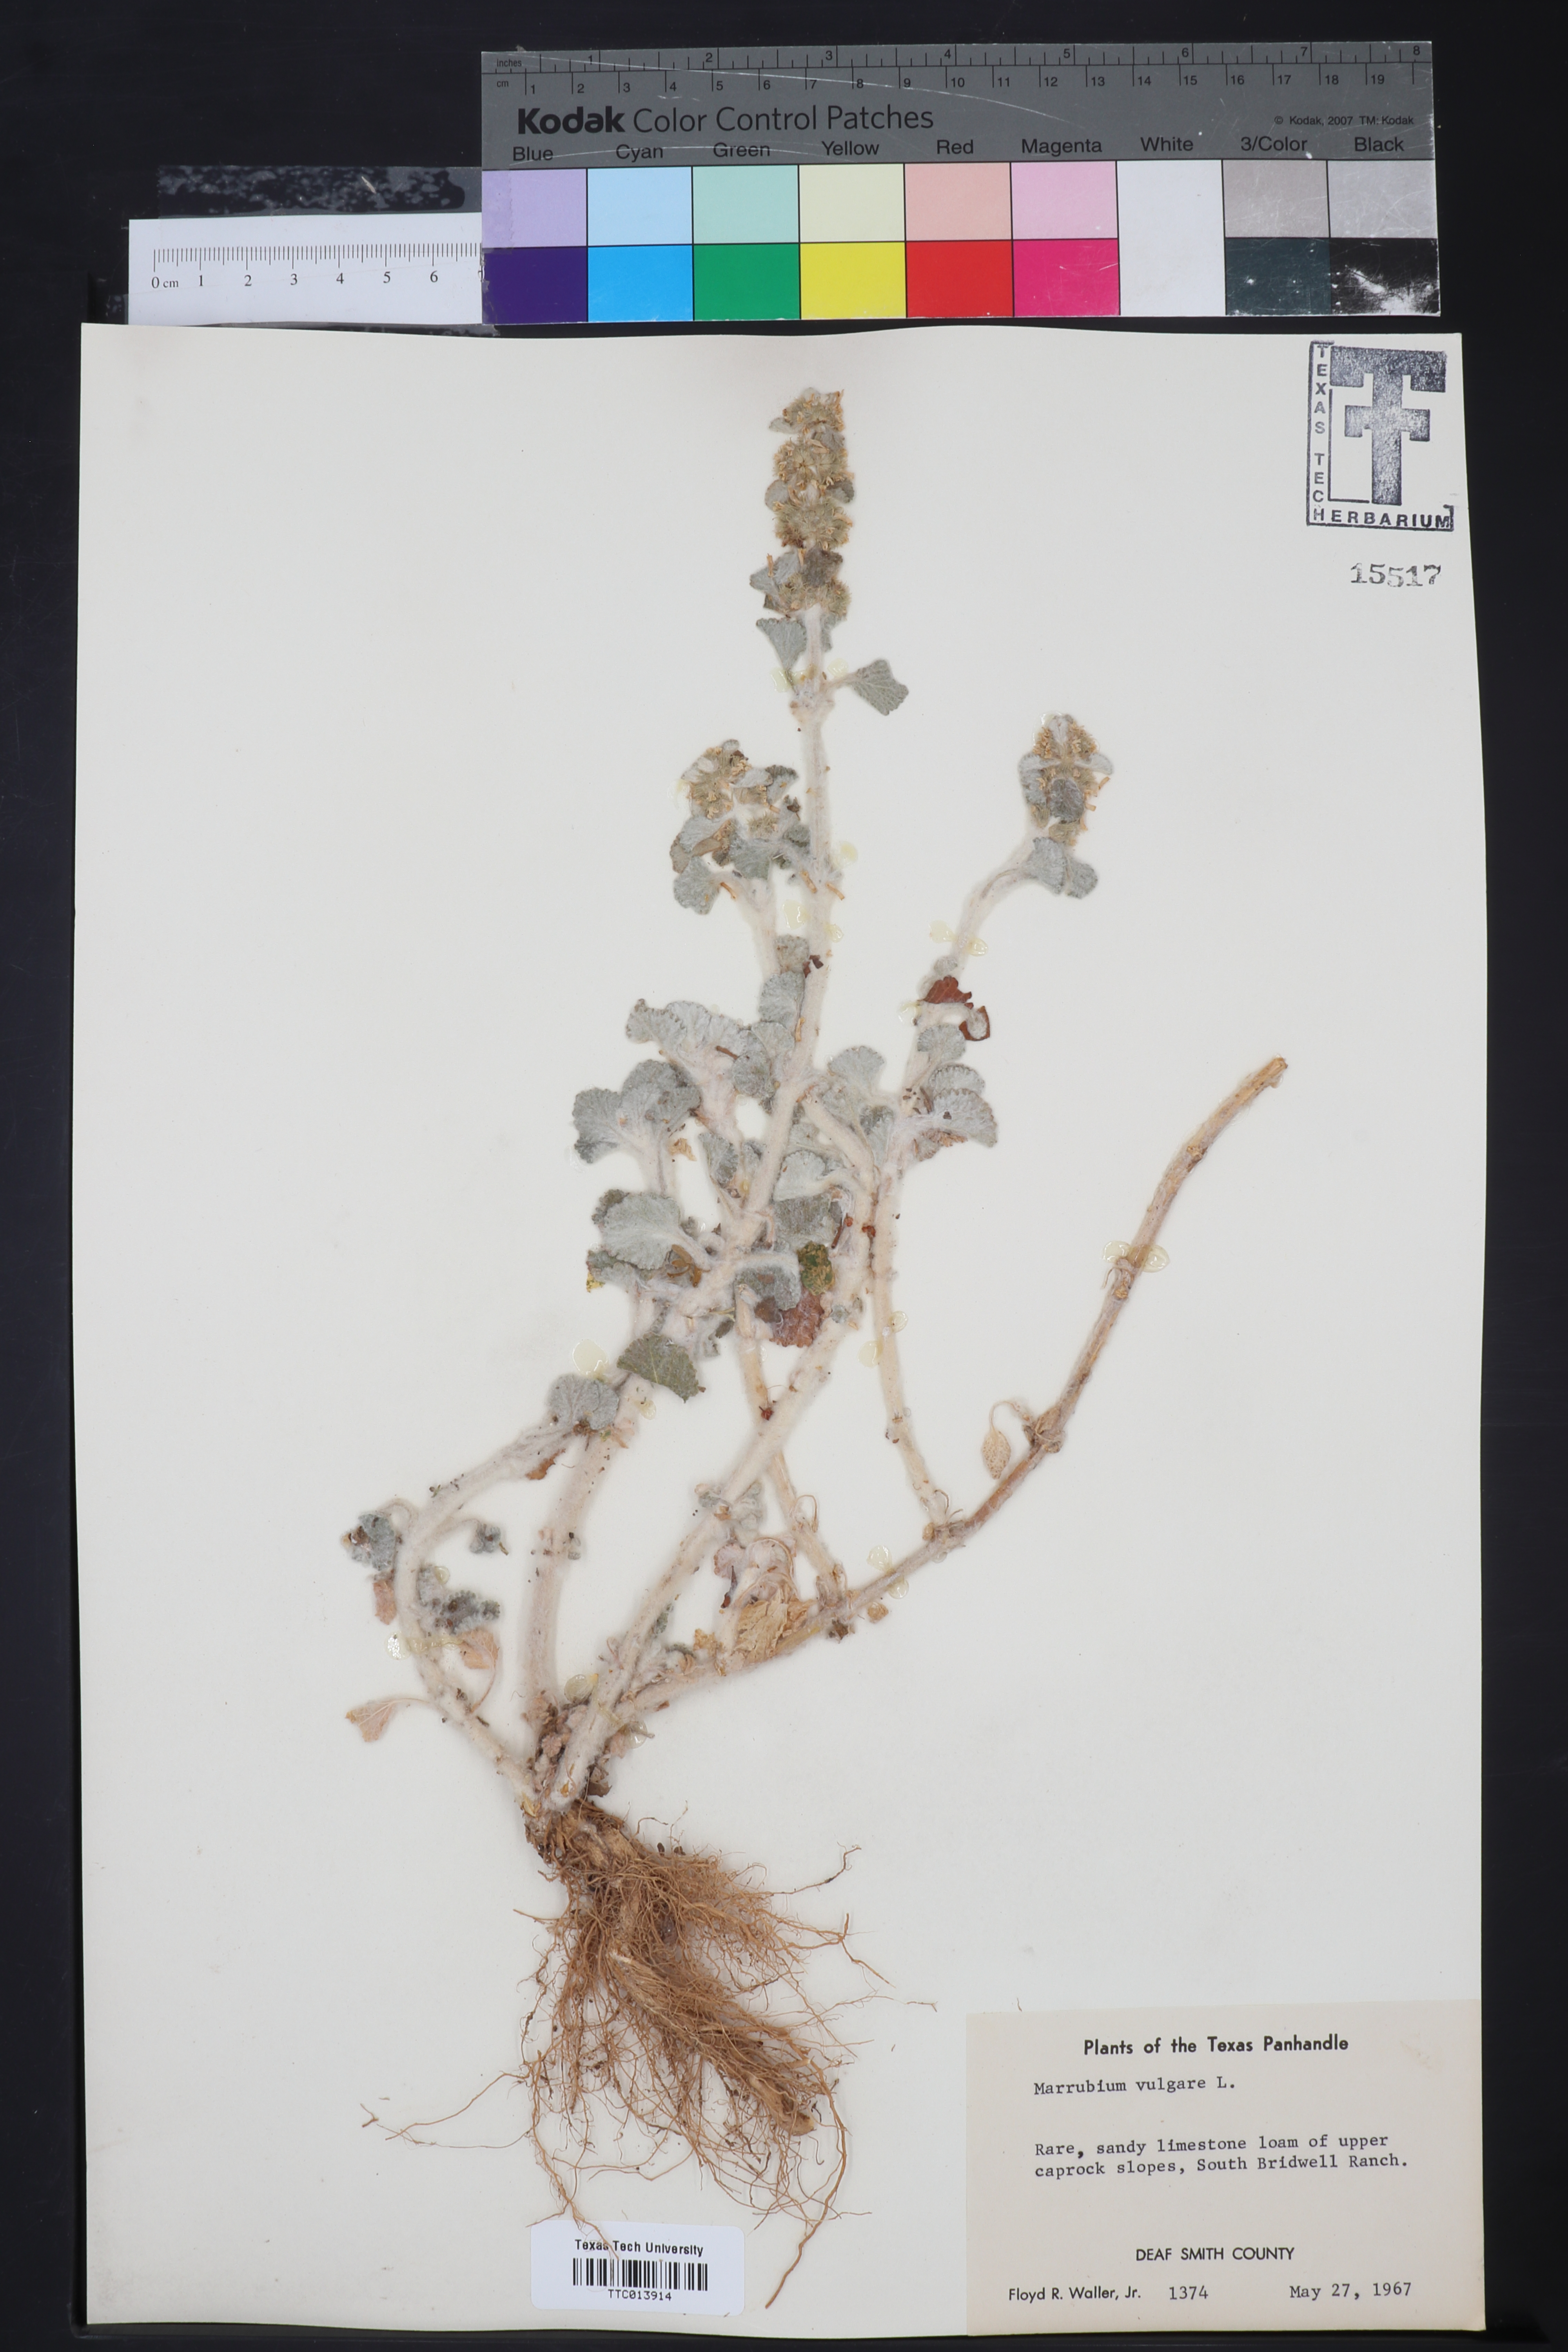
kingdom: Plantae
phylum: Tracheophyta
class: Magnoliopsida
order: Lamiales
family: Lamiaceae
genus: Marrubium
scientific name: Marrubium vulgare
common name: Horehound
